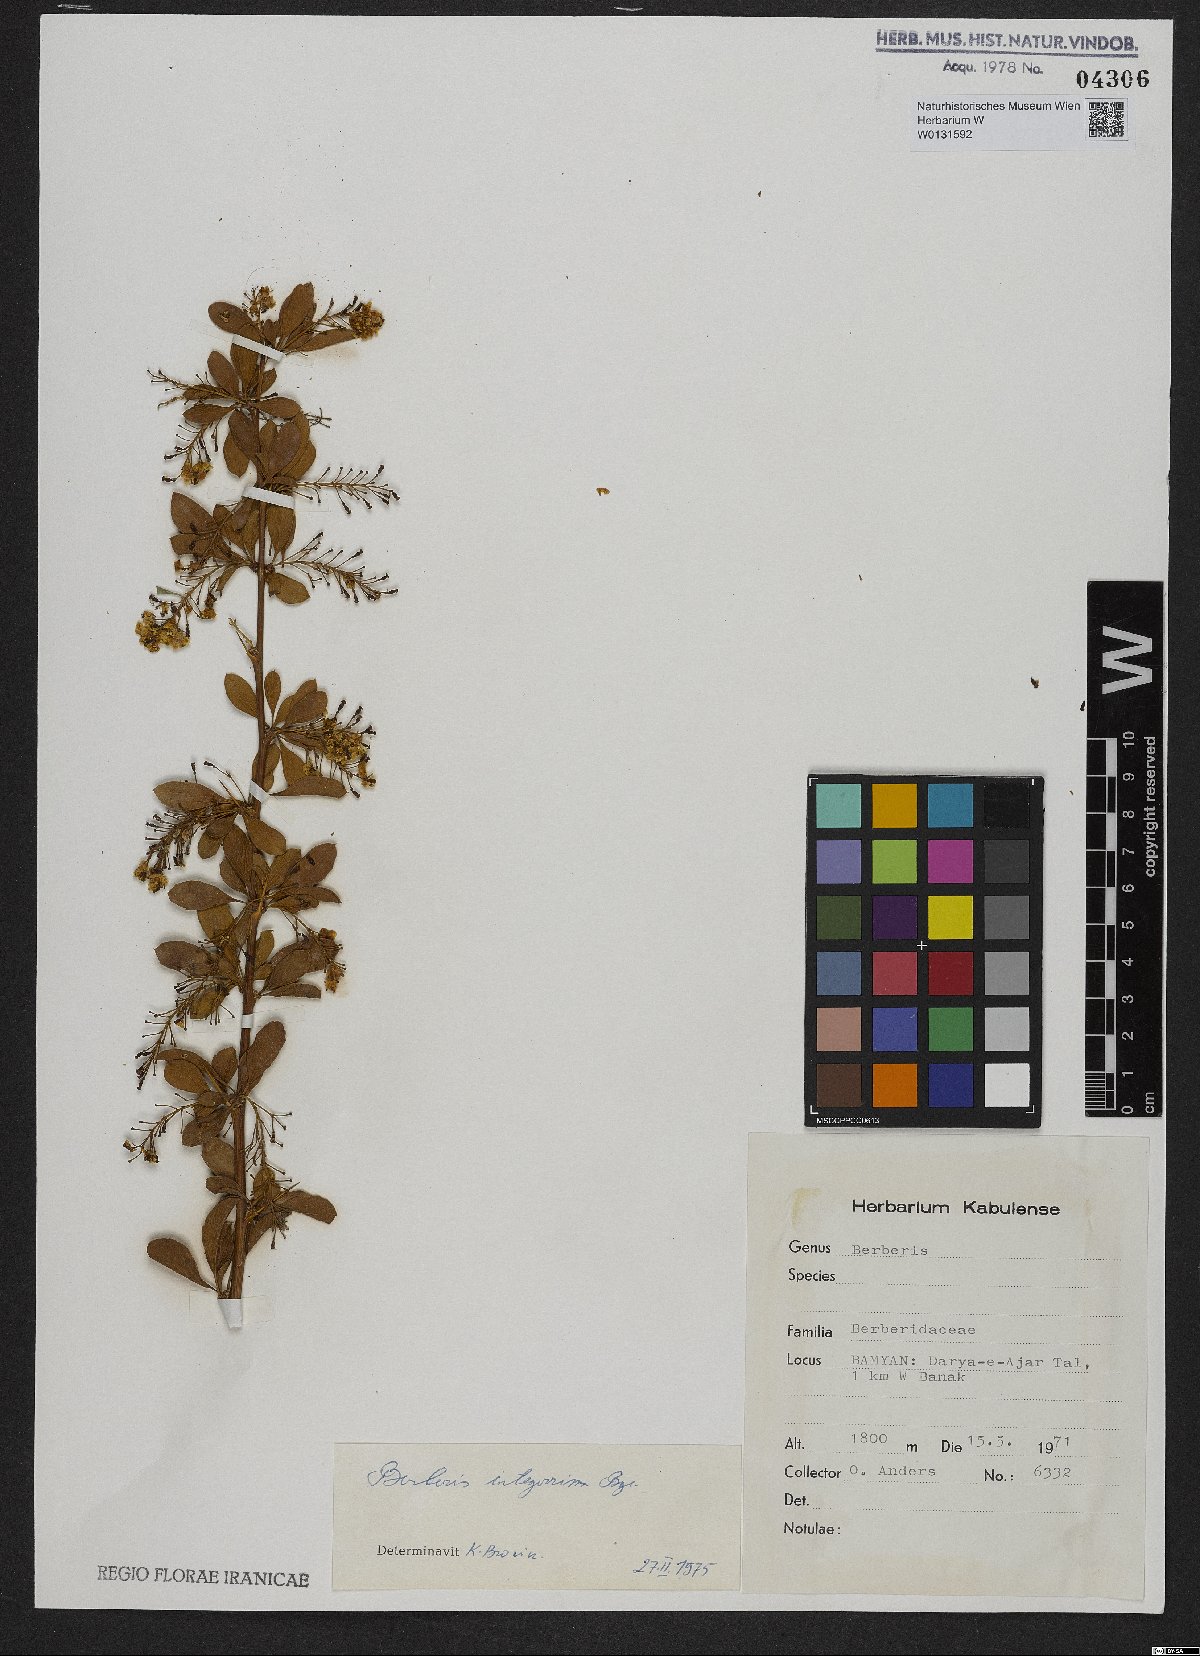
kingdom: Plantae
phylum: Tracheophyta
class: Magnoliopsida
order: Ranunculales
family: Berberidaceae
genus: Berberis
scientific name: Berberis integerrima
